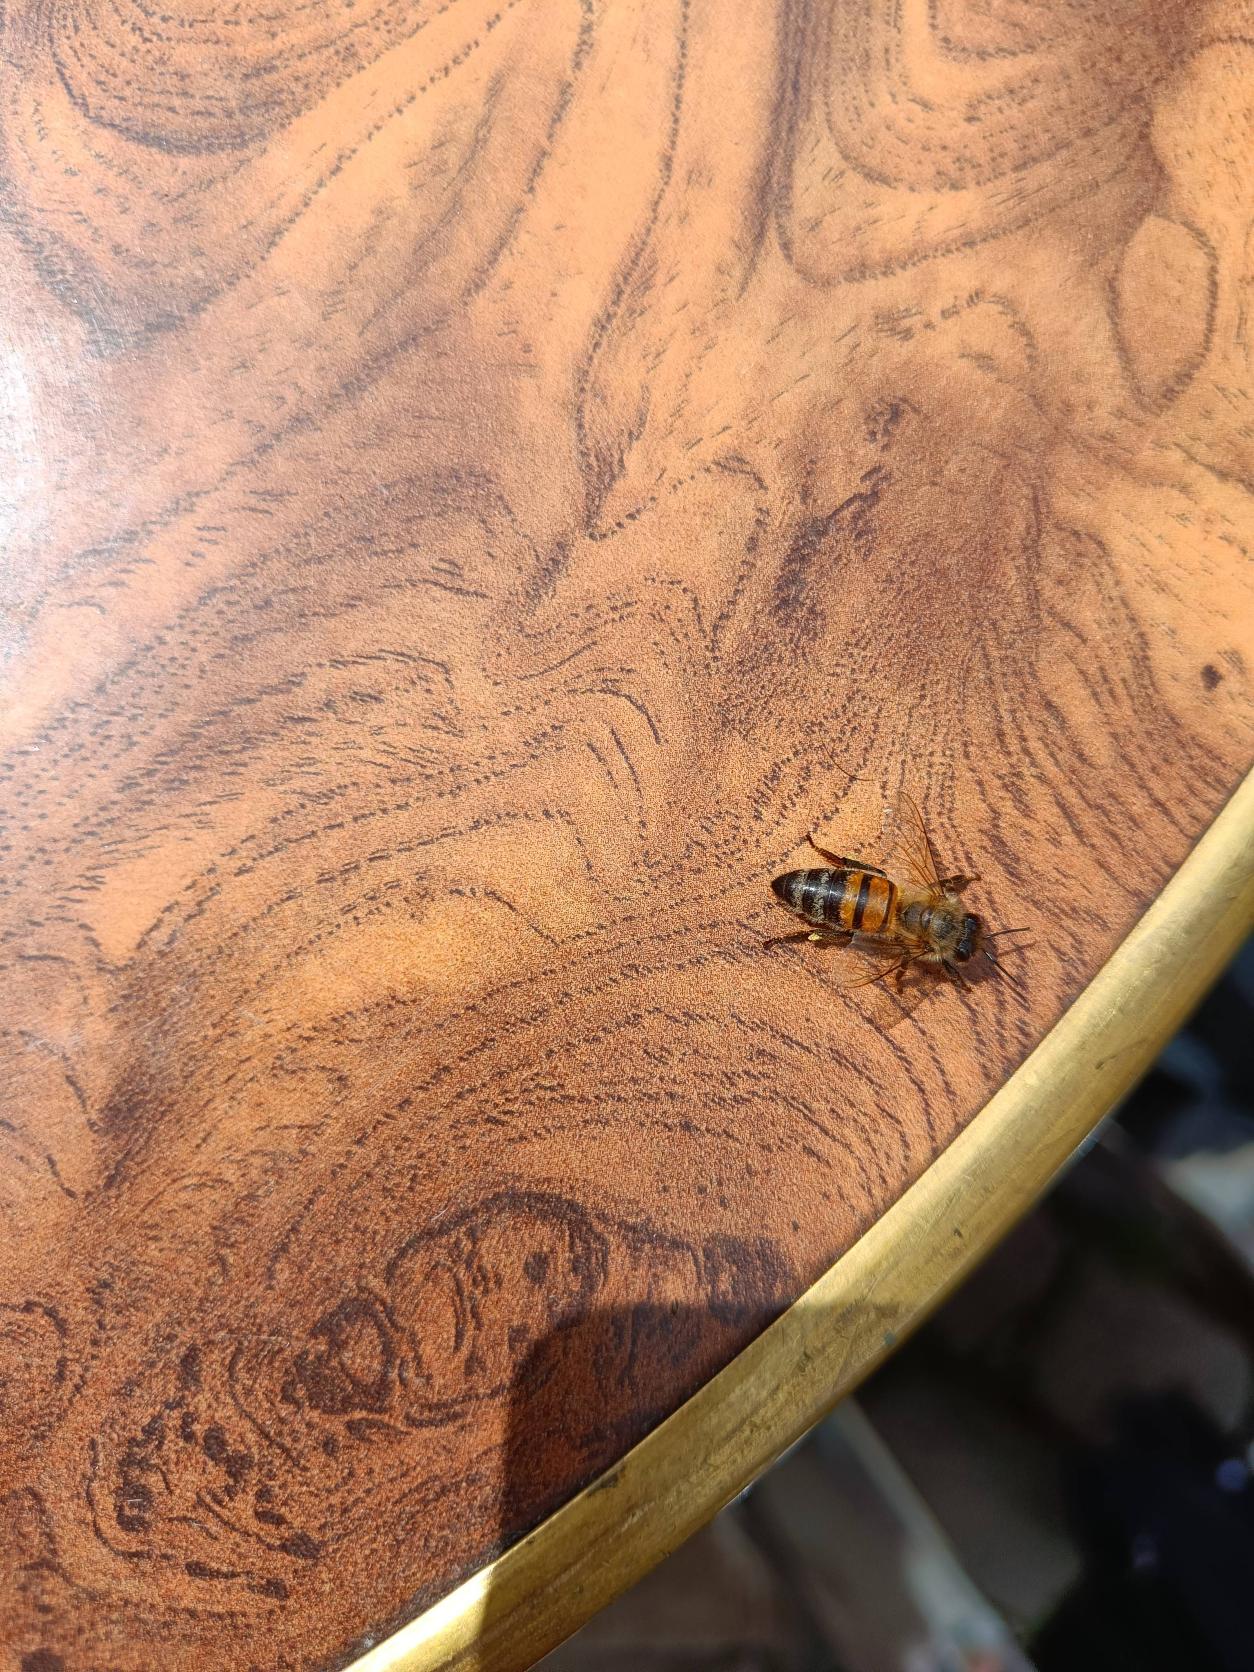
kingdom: Animalia
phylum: Arthropoda
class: Insecta
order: Hymenoptera
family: Apidae
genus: Apis
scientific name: Apis mellifera
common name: Honningbi
